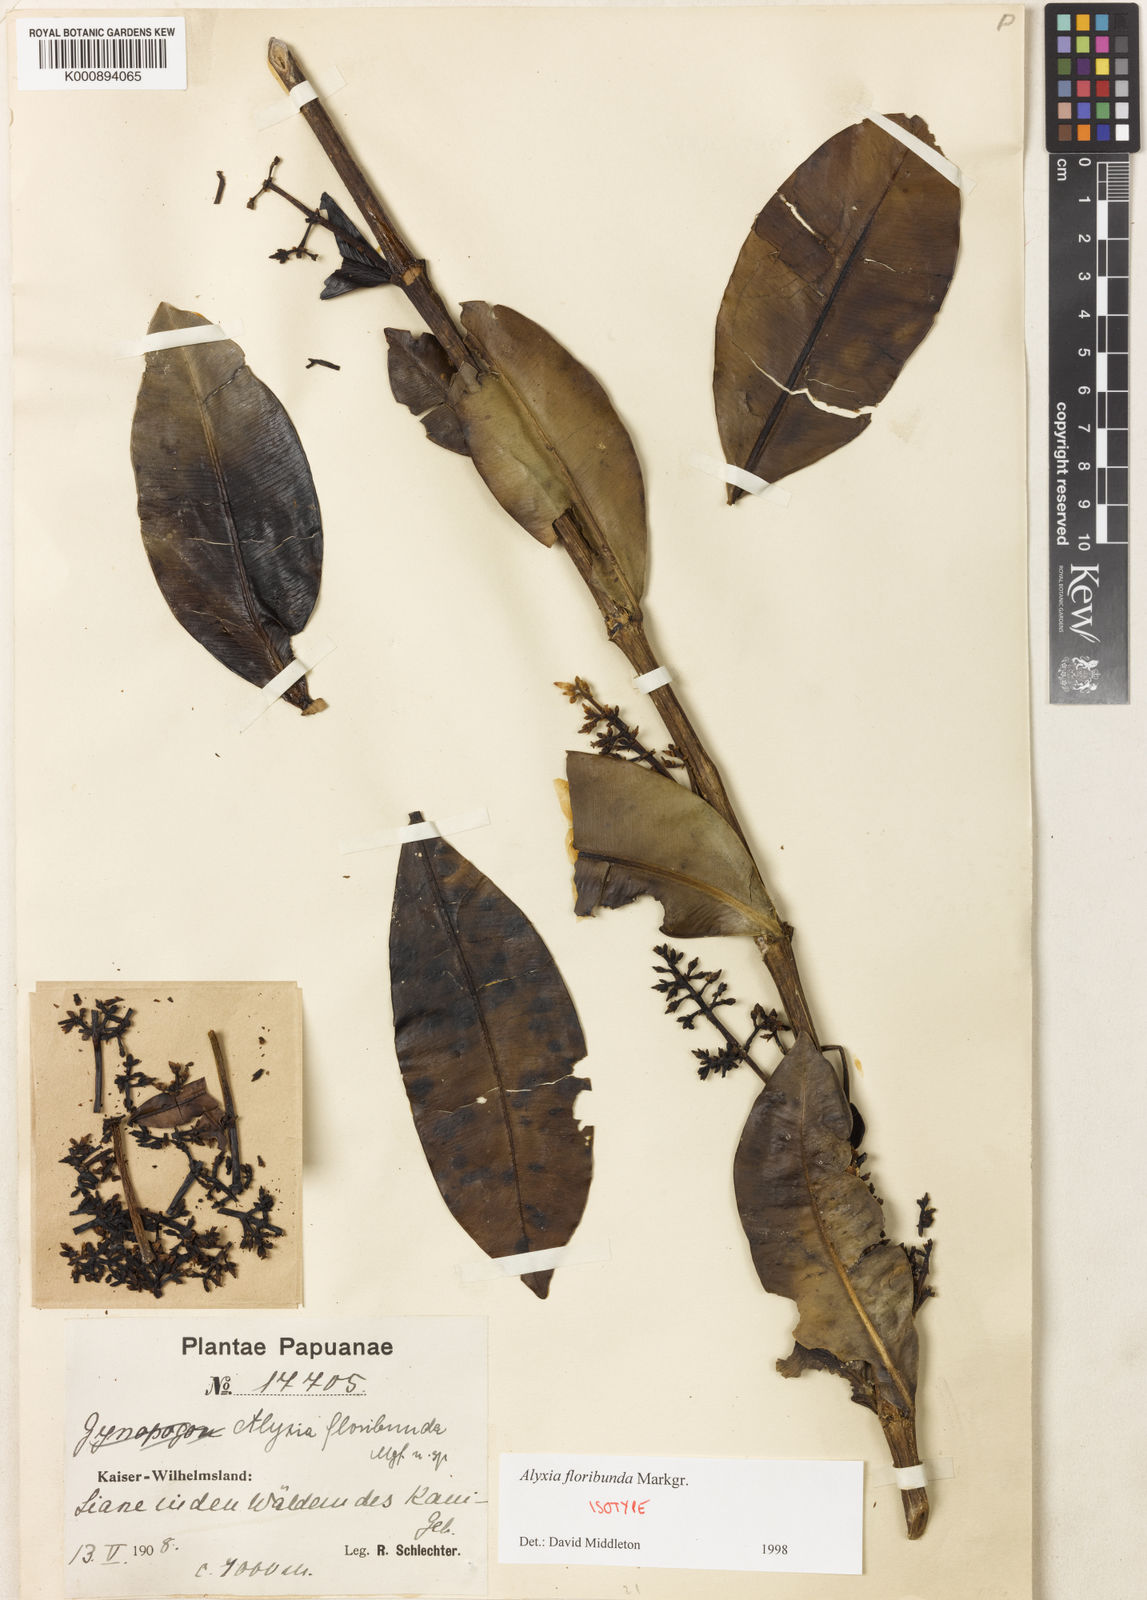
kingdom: Plantae
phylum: Tracheophyta
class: Magnoliopsida
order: Gentianales
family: Apocynaceae
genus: Alyxia
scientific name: Alyxia floribunda
